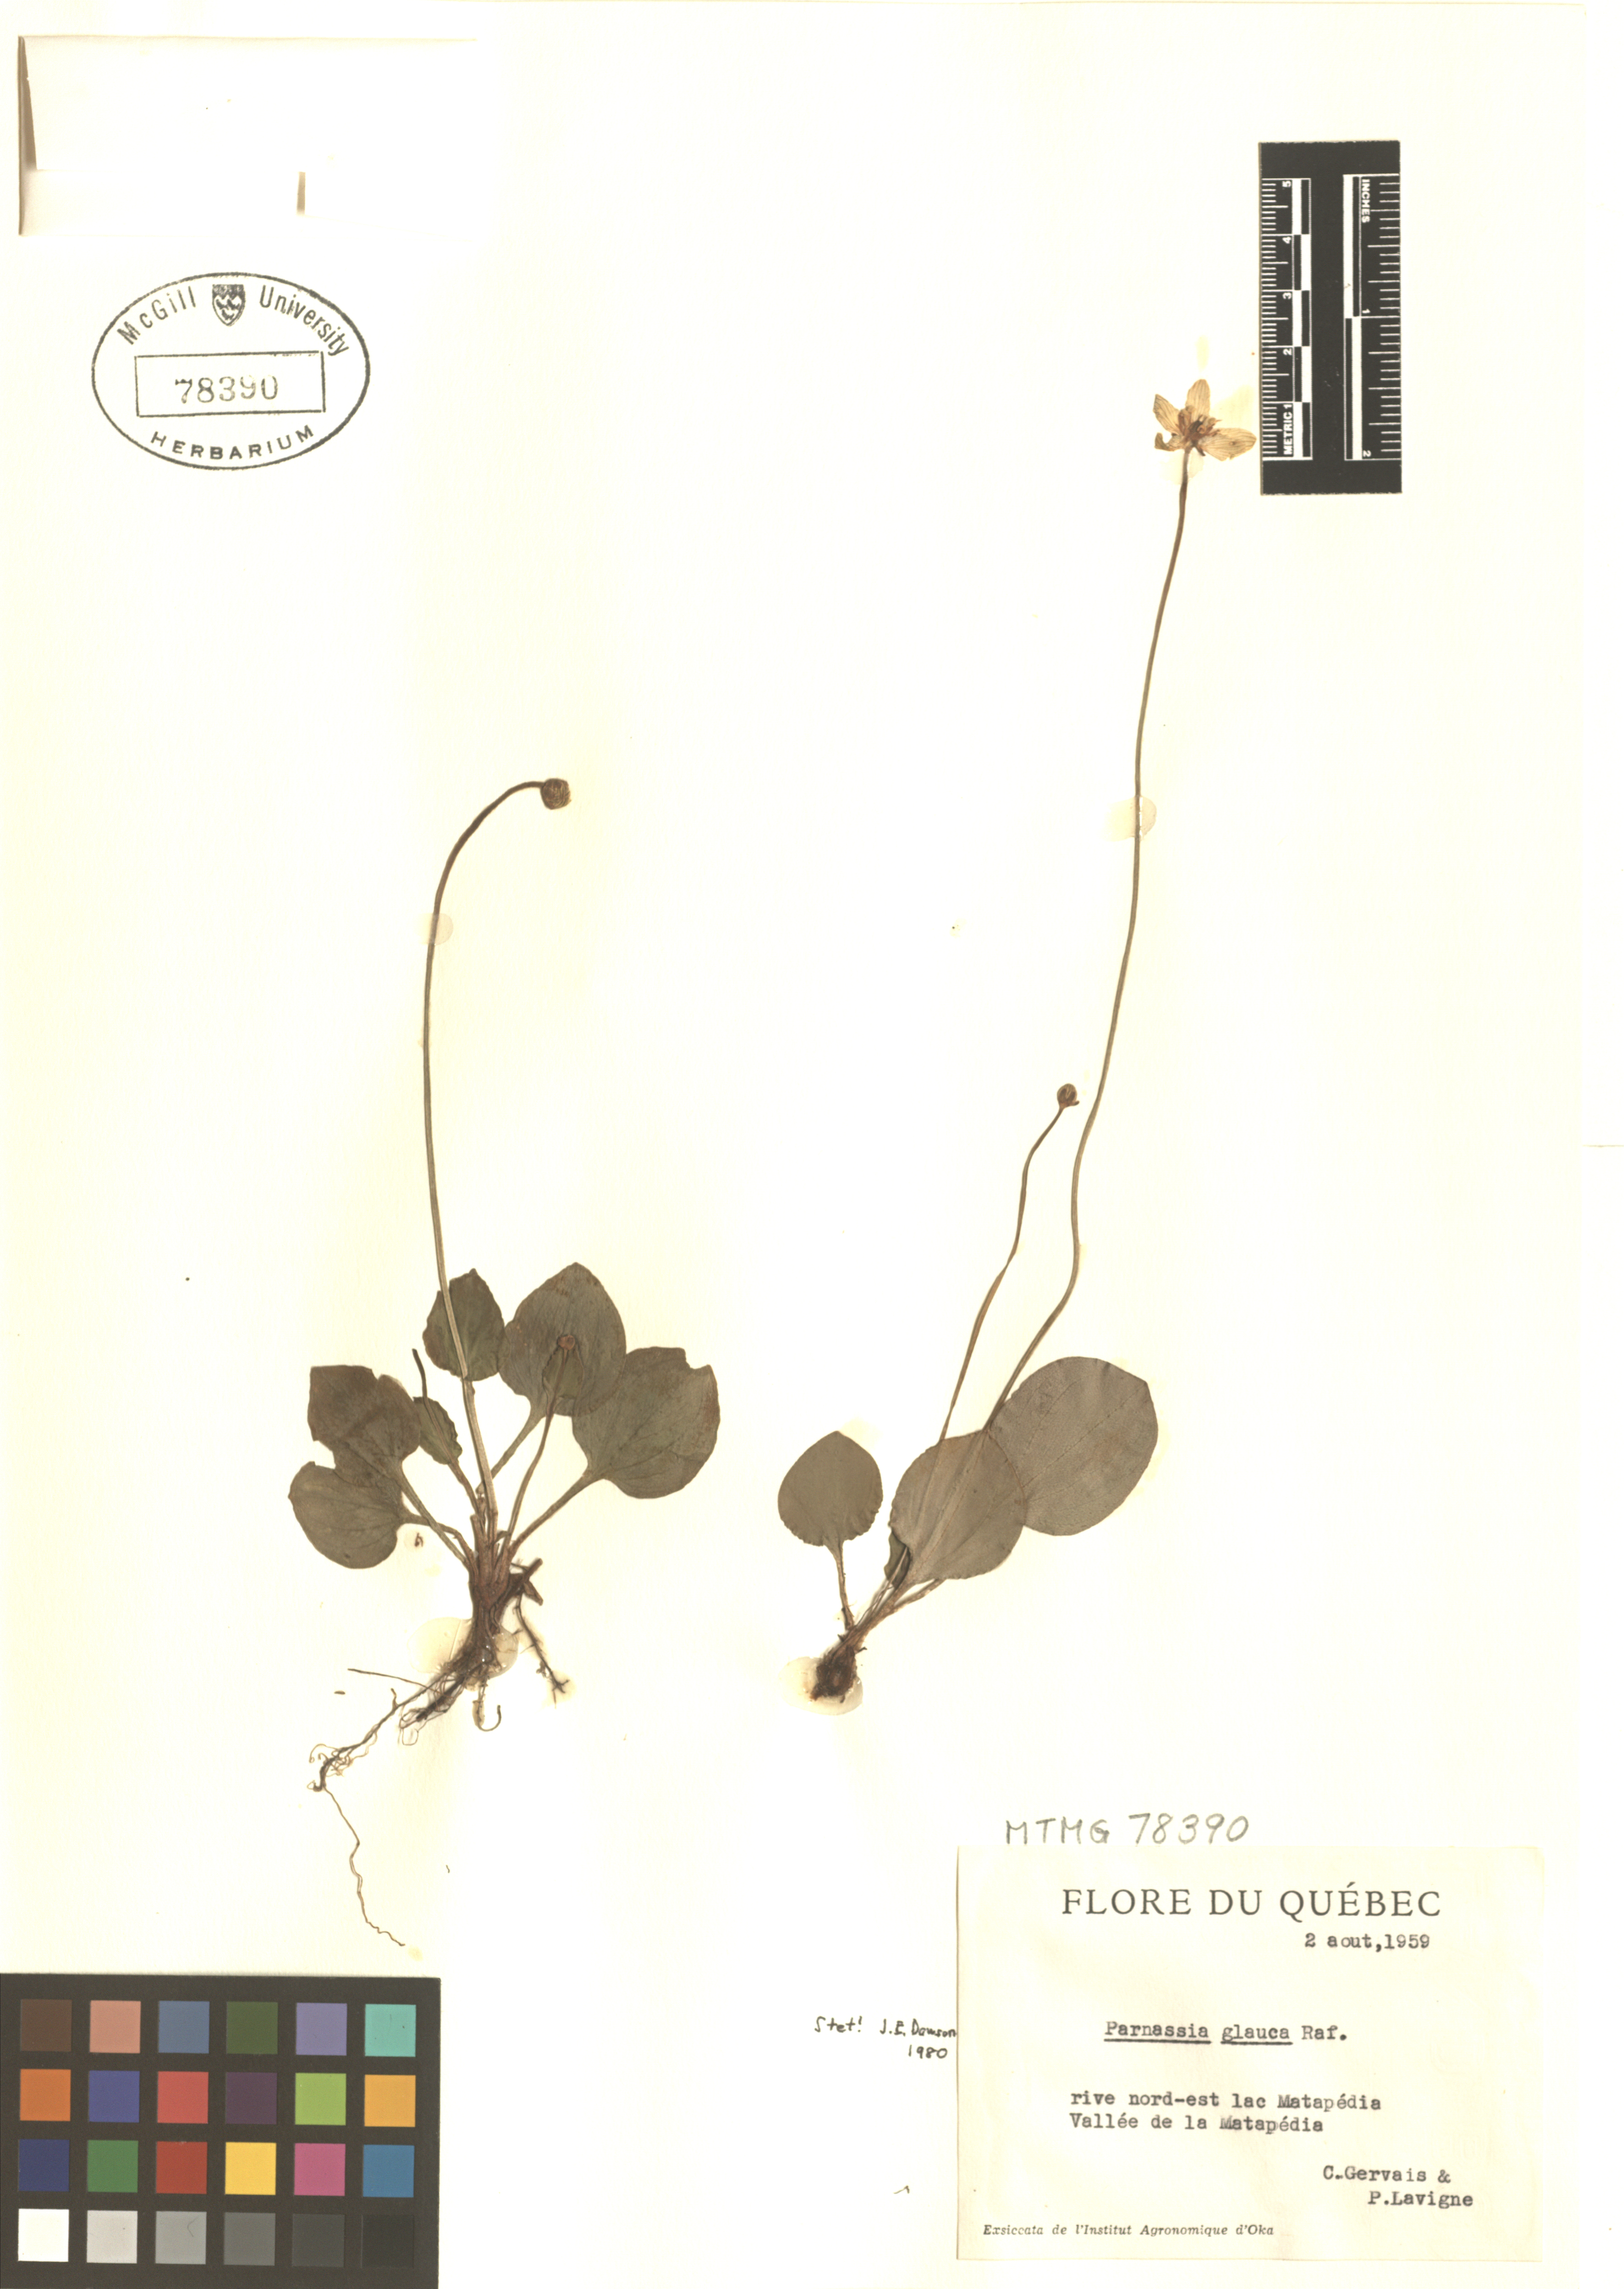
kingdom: Plantae
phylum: Tracheophyta
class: Magnoliopsida
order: Celastrales
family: Parnassiaceae
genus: Parnassia
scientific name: Parnassia glauca
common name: American grass-of-parnassus
